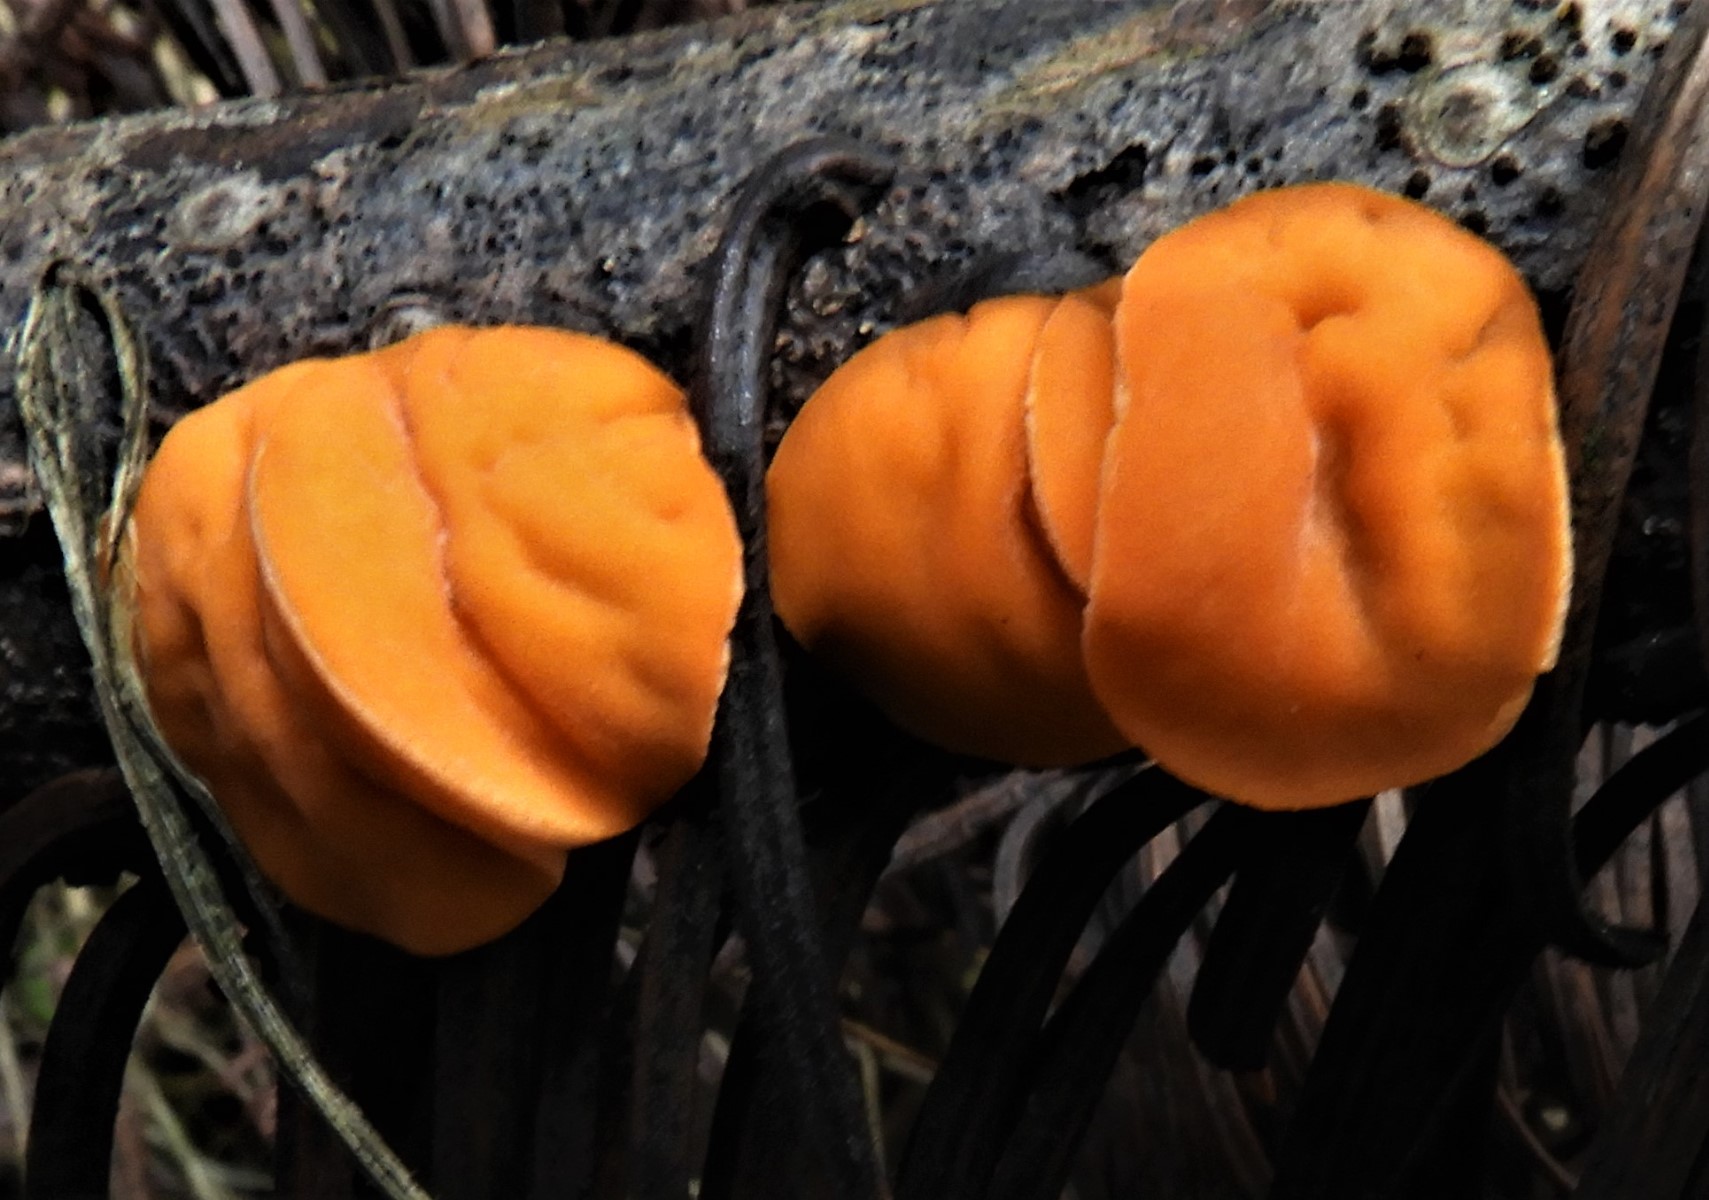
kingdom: Fungi
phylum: Ascomycota
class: Pezizomycetes
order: Pezizales
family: Sarcoscyphaceae
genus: Pithya
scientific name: Pithya vulgaris
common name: stor dukatbæger
